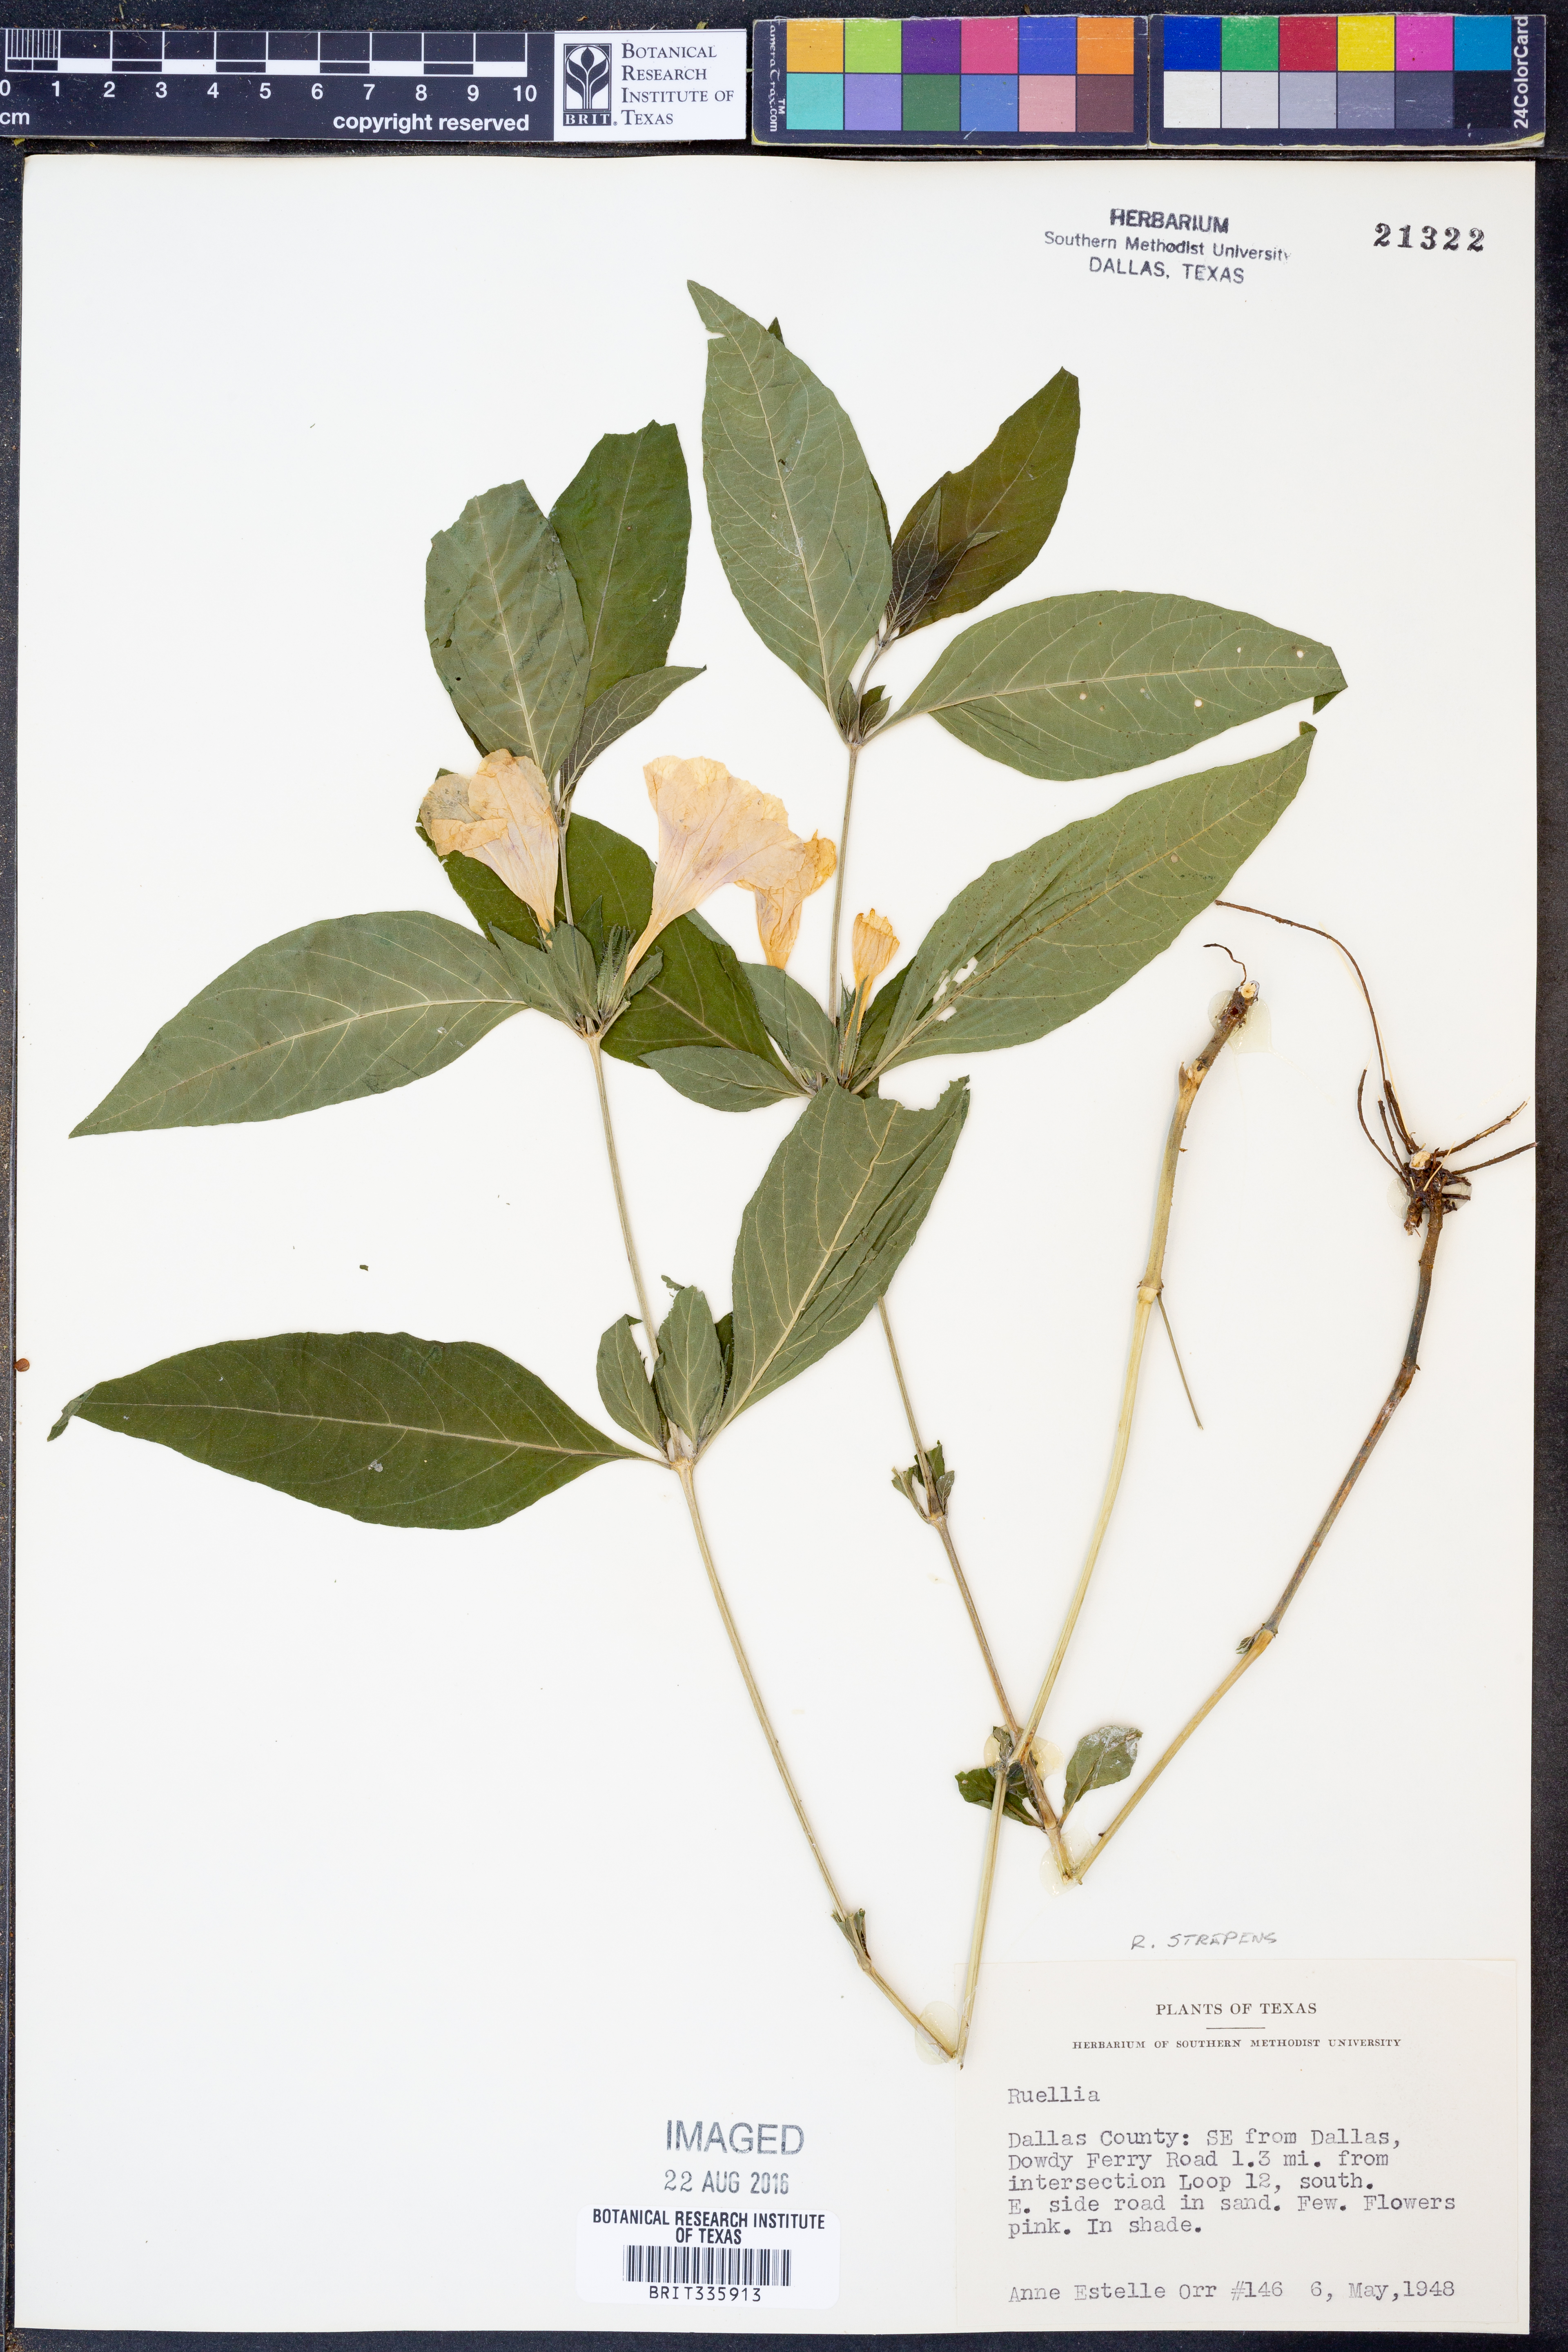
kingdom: Plantae
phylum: Tracheophyta
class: Magnoliopsida
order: Lamiales
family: Acanthaceae
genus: Ruellia
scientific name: Ruellia strepens
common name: Limestone wild petunia
